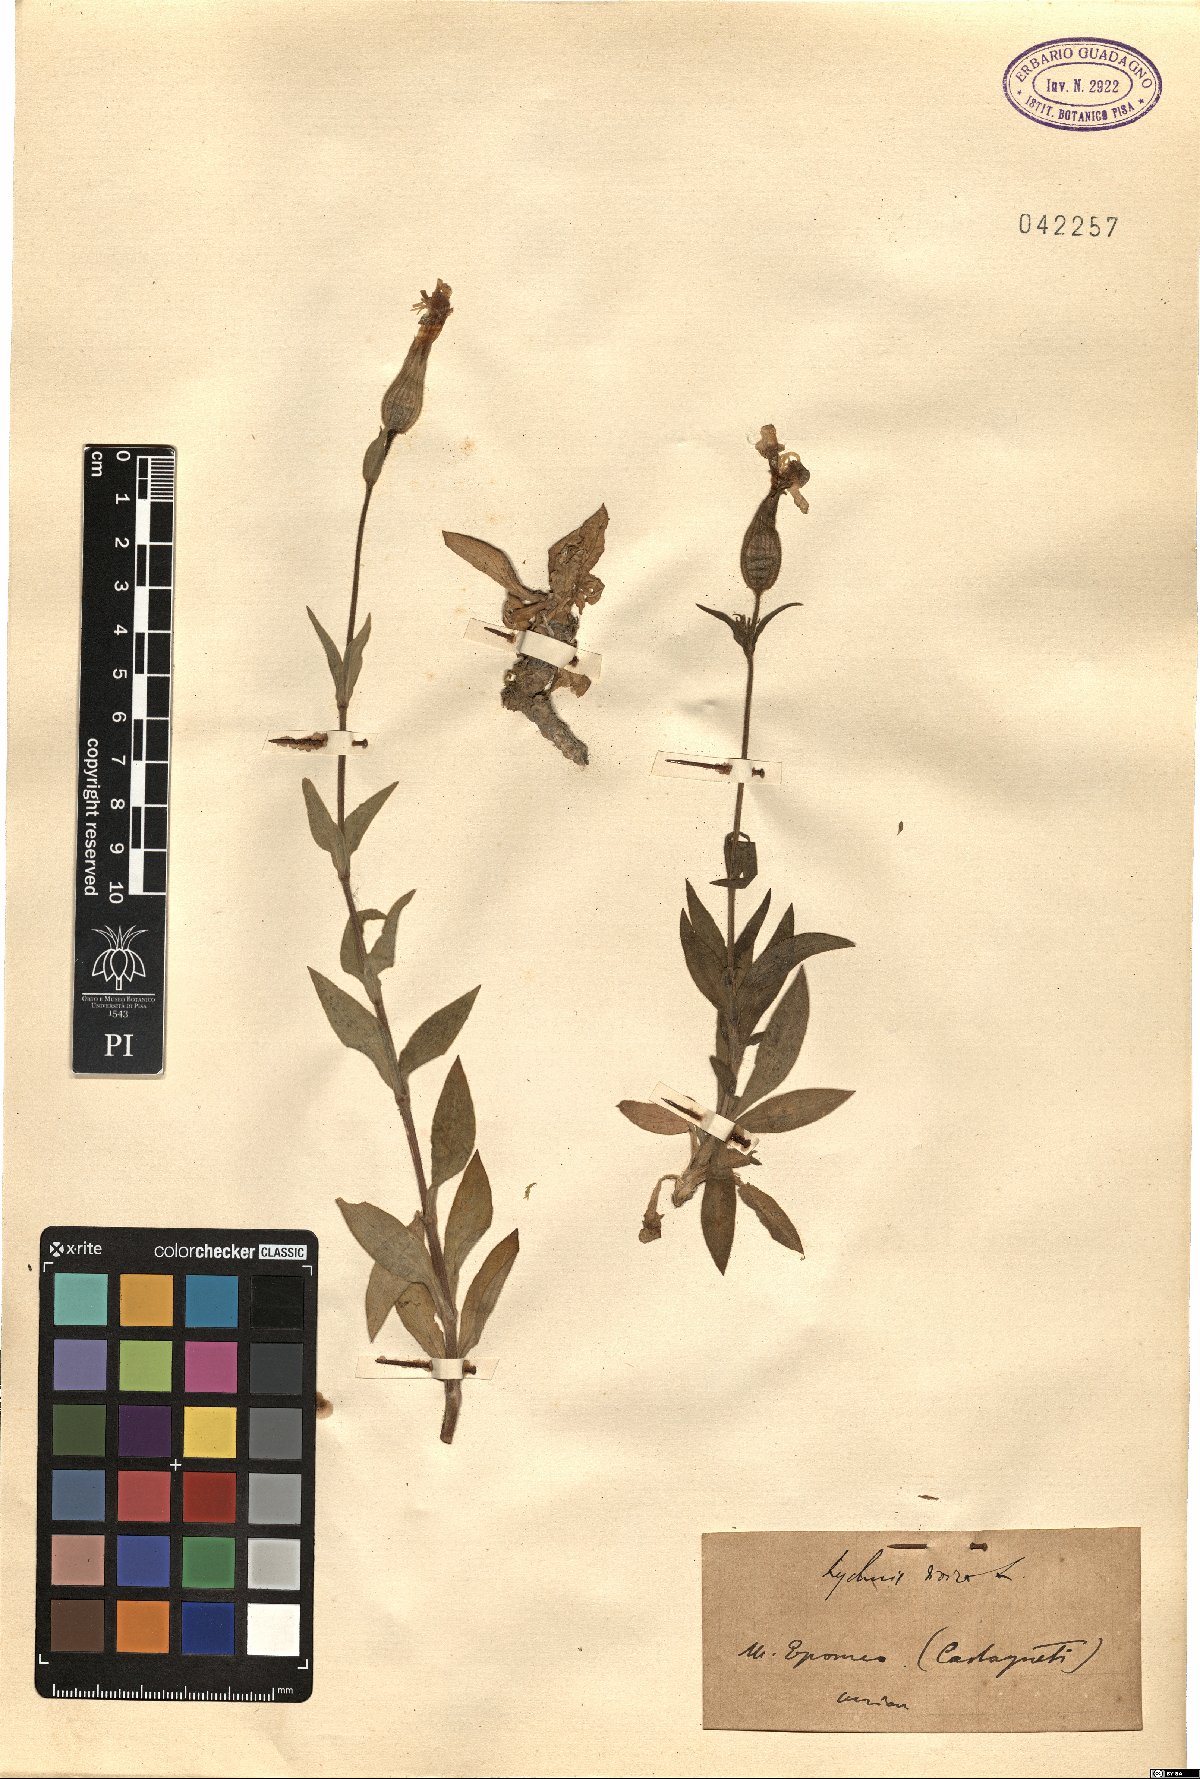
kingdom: Plantae
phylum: Tracheophyta
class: Magnoliopsida
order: Caryophyllales
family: Caryophyllaceae
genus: Silene
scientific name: Silene dioica
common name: Red campion
